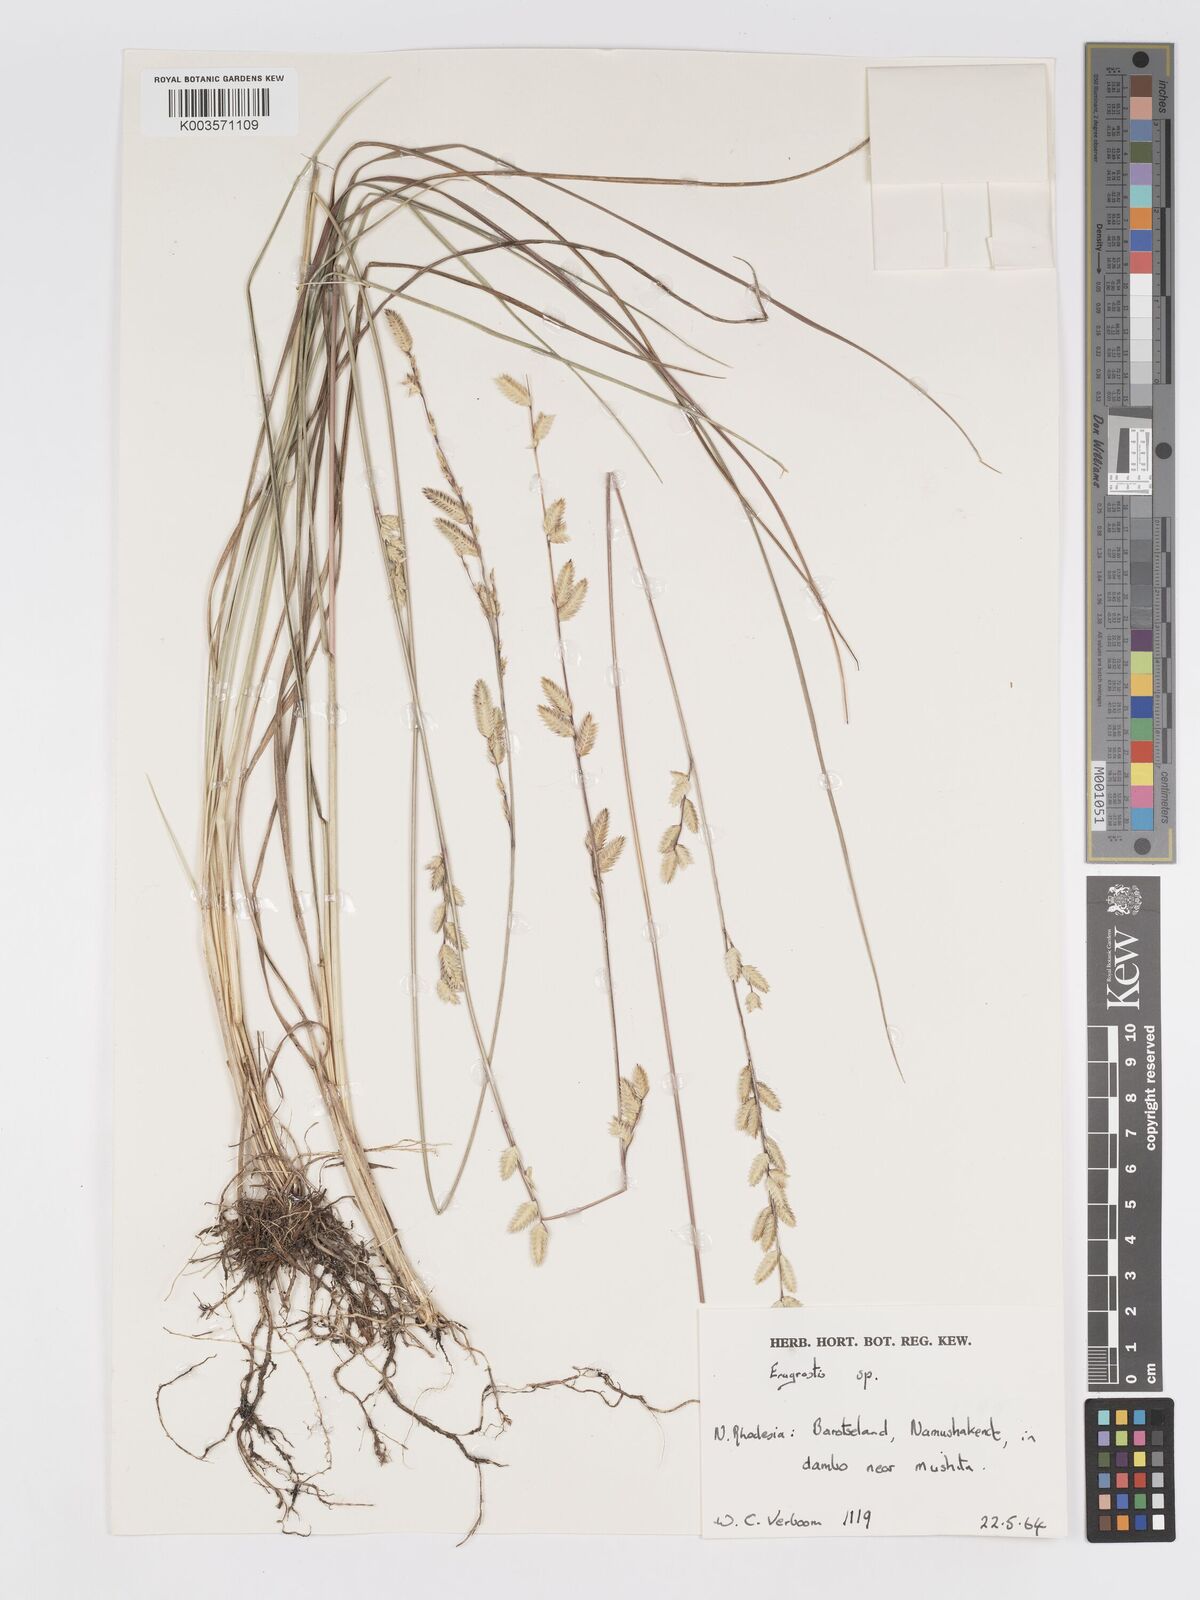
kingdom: Plantae
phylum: Tracheophyta
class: Liliopsida
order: Poales
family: Poaceae
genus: Eragrostis
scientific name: Eragrostis nindensis
